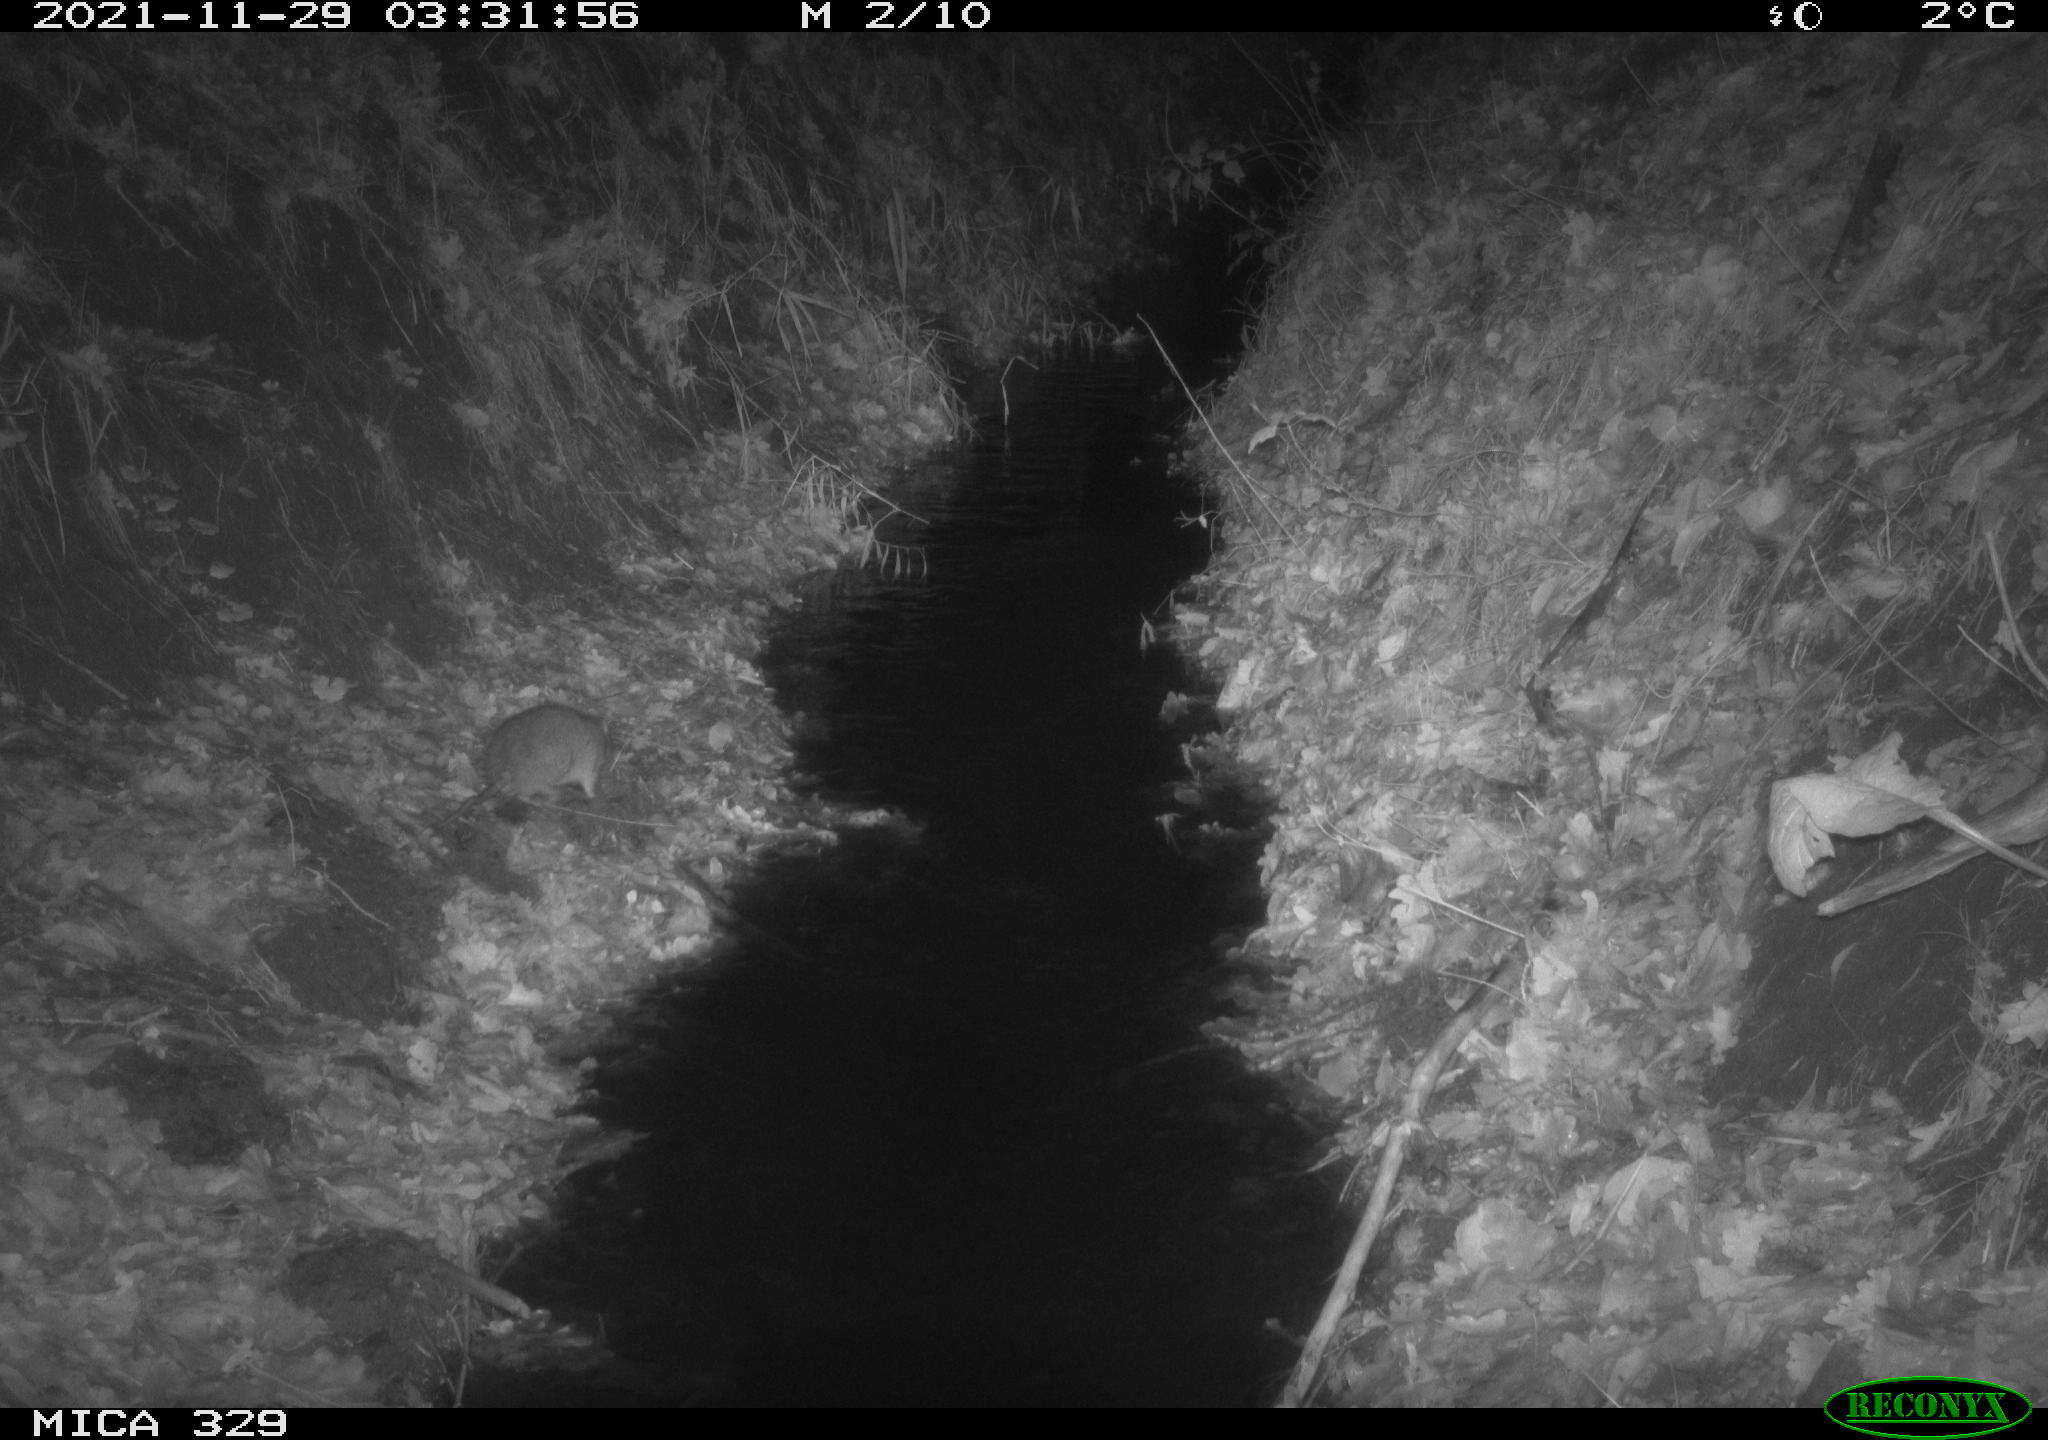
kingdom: Animalia
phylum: Chordata
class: Mammalia
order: Rodentia
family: Muridae
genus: Rattus
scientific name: Rattus norvegicus
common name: Brown rat
